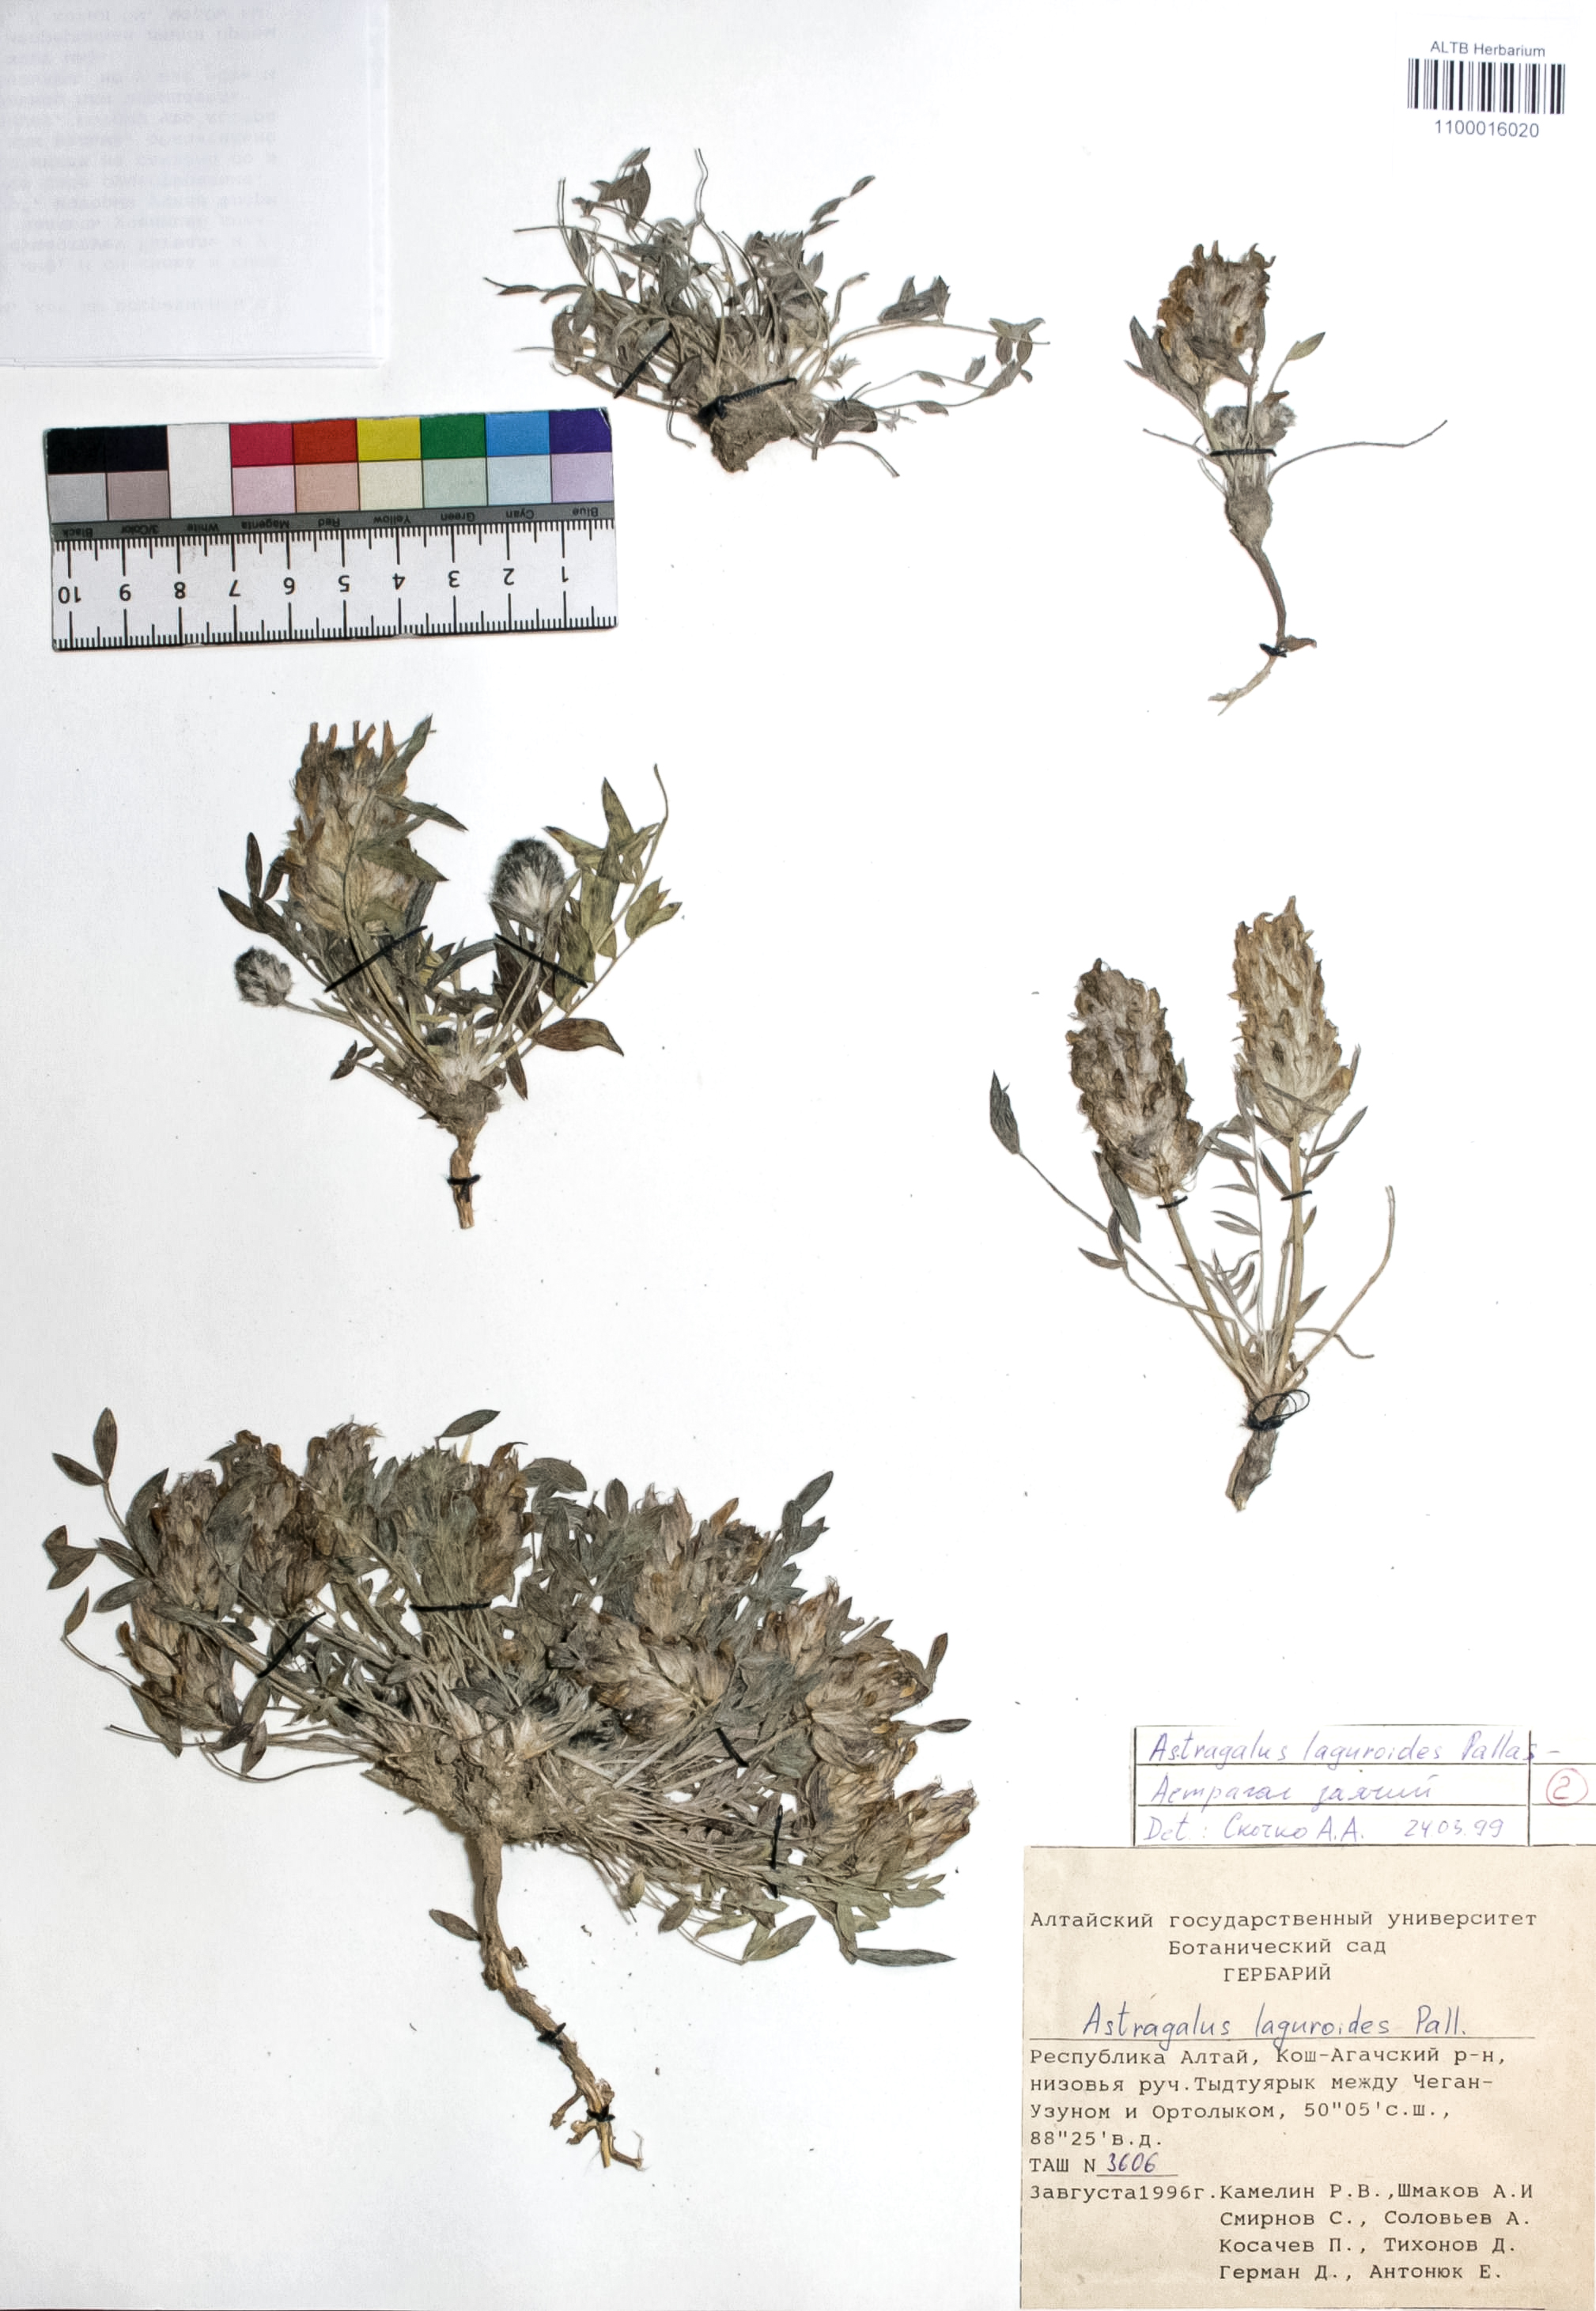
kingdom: Plantae
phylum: Tracheophyta
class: Magnoliopsida
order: Fabales
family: Fabaceae
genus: Astragalus
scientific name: Astragalus laguroides
